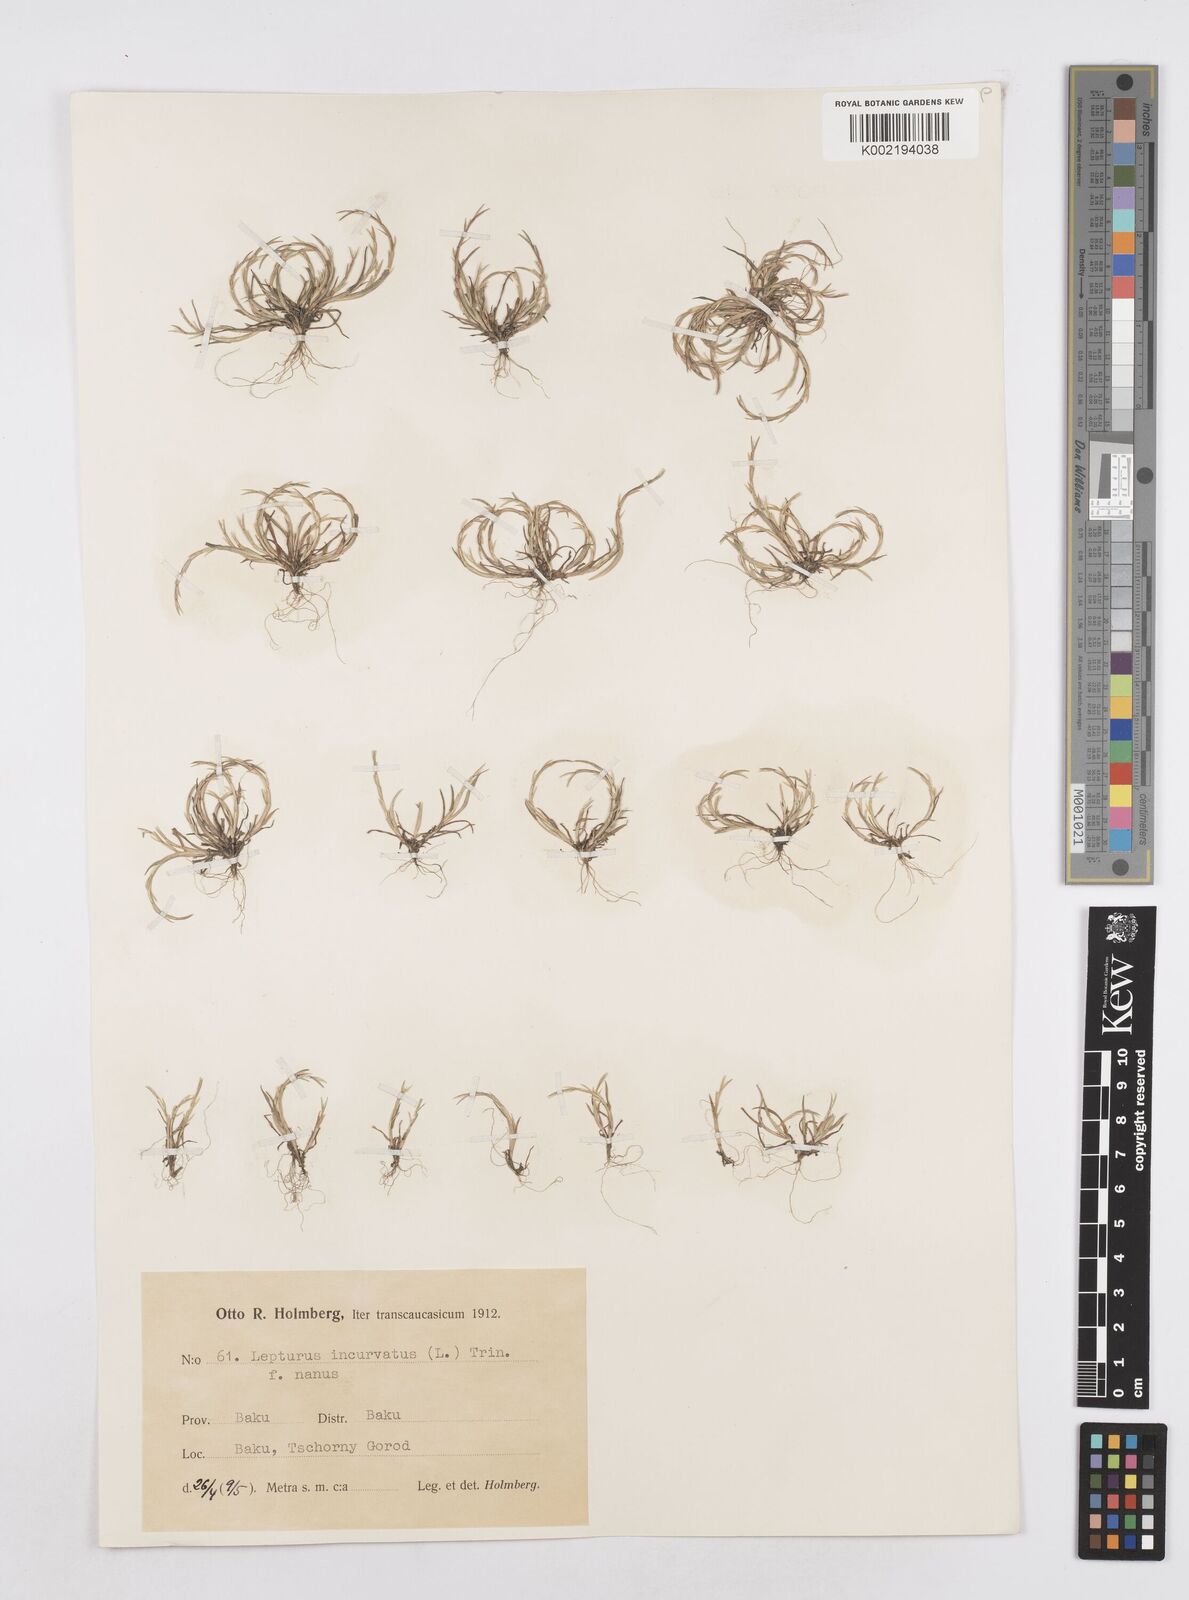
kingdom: Plantae
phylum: Tracheophyta
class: Liliopsida
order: Poales
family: Poaceae
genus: Parapholis
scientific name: Parapholis incurva
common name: Curved sicklegrass
